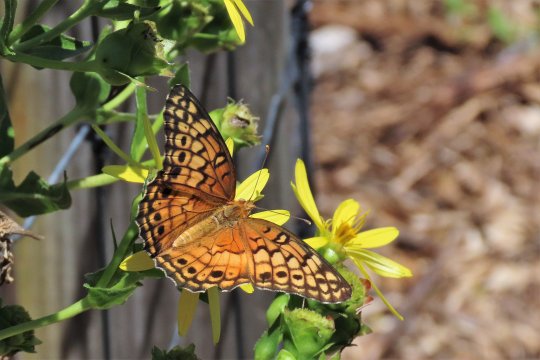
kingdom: Animalia
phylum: Arthropoda
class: Insecta
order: Lepidoptera
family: Nymphalidae
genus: Euptoieta
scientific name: Euptoieta claudia
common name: Variegated Fritillary
